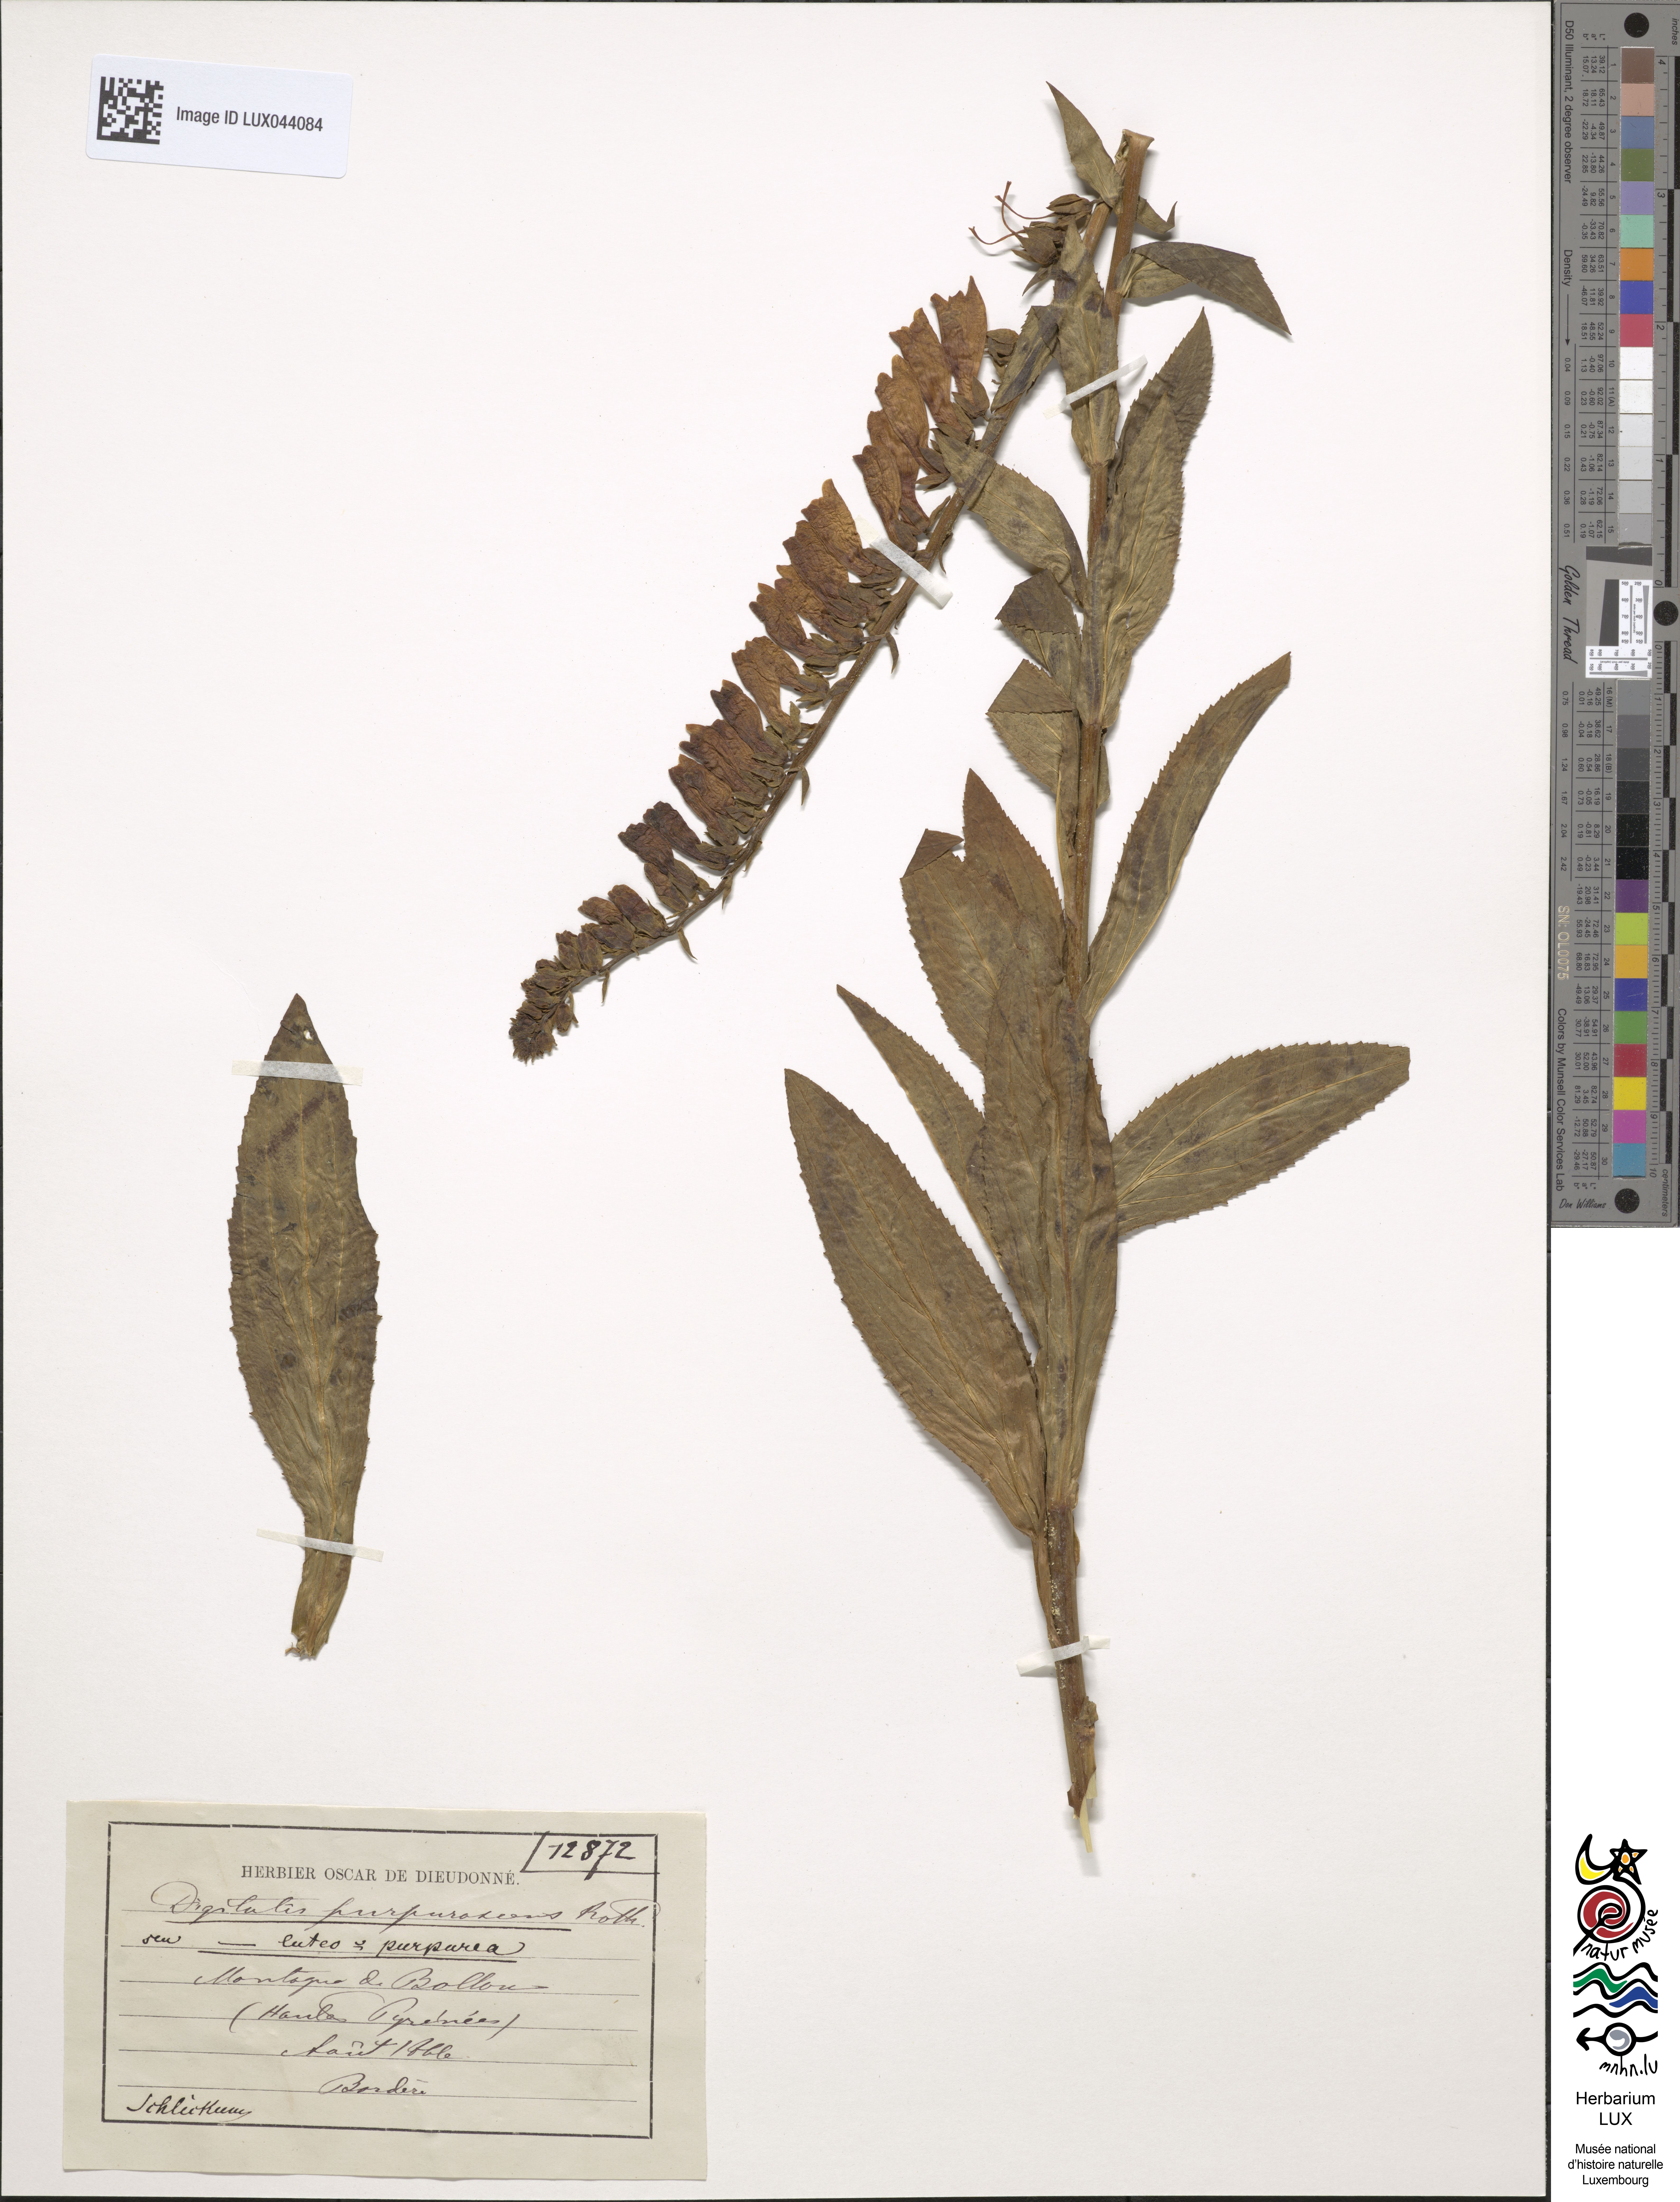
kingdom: Plantae
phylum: Tracheophyta
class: Magnoliopsida
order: Lamiales
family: Plantaginaceae
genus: Digitalis
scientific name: Digitalis fucata
